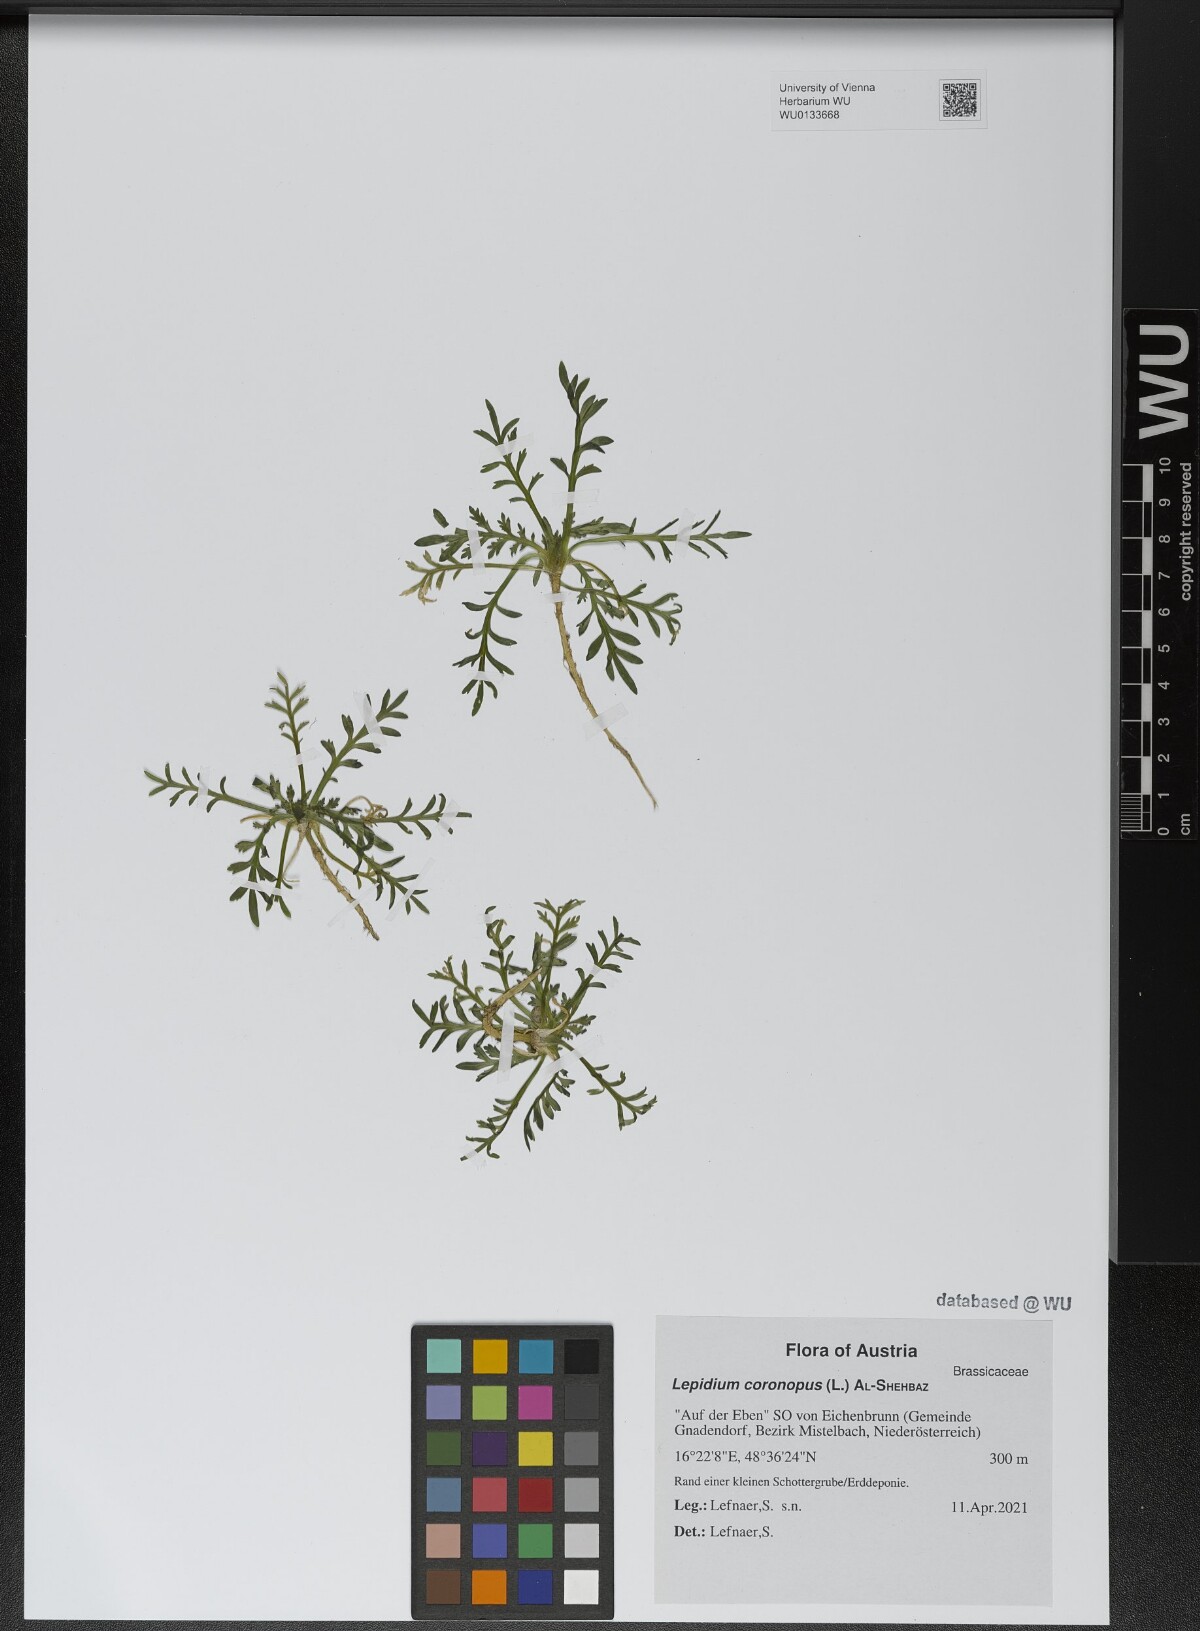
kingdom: Plantae
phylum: Tracheophyta
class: Magnoliopsida
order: Brassicales
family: Brassicaceae
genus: Lepidium
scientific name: Lepidium coronopus
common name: Greater swinecress
